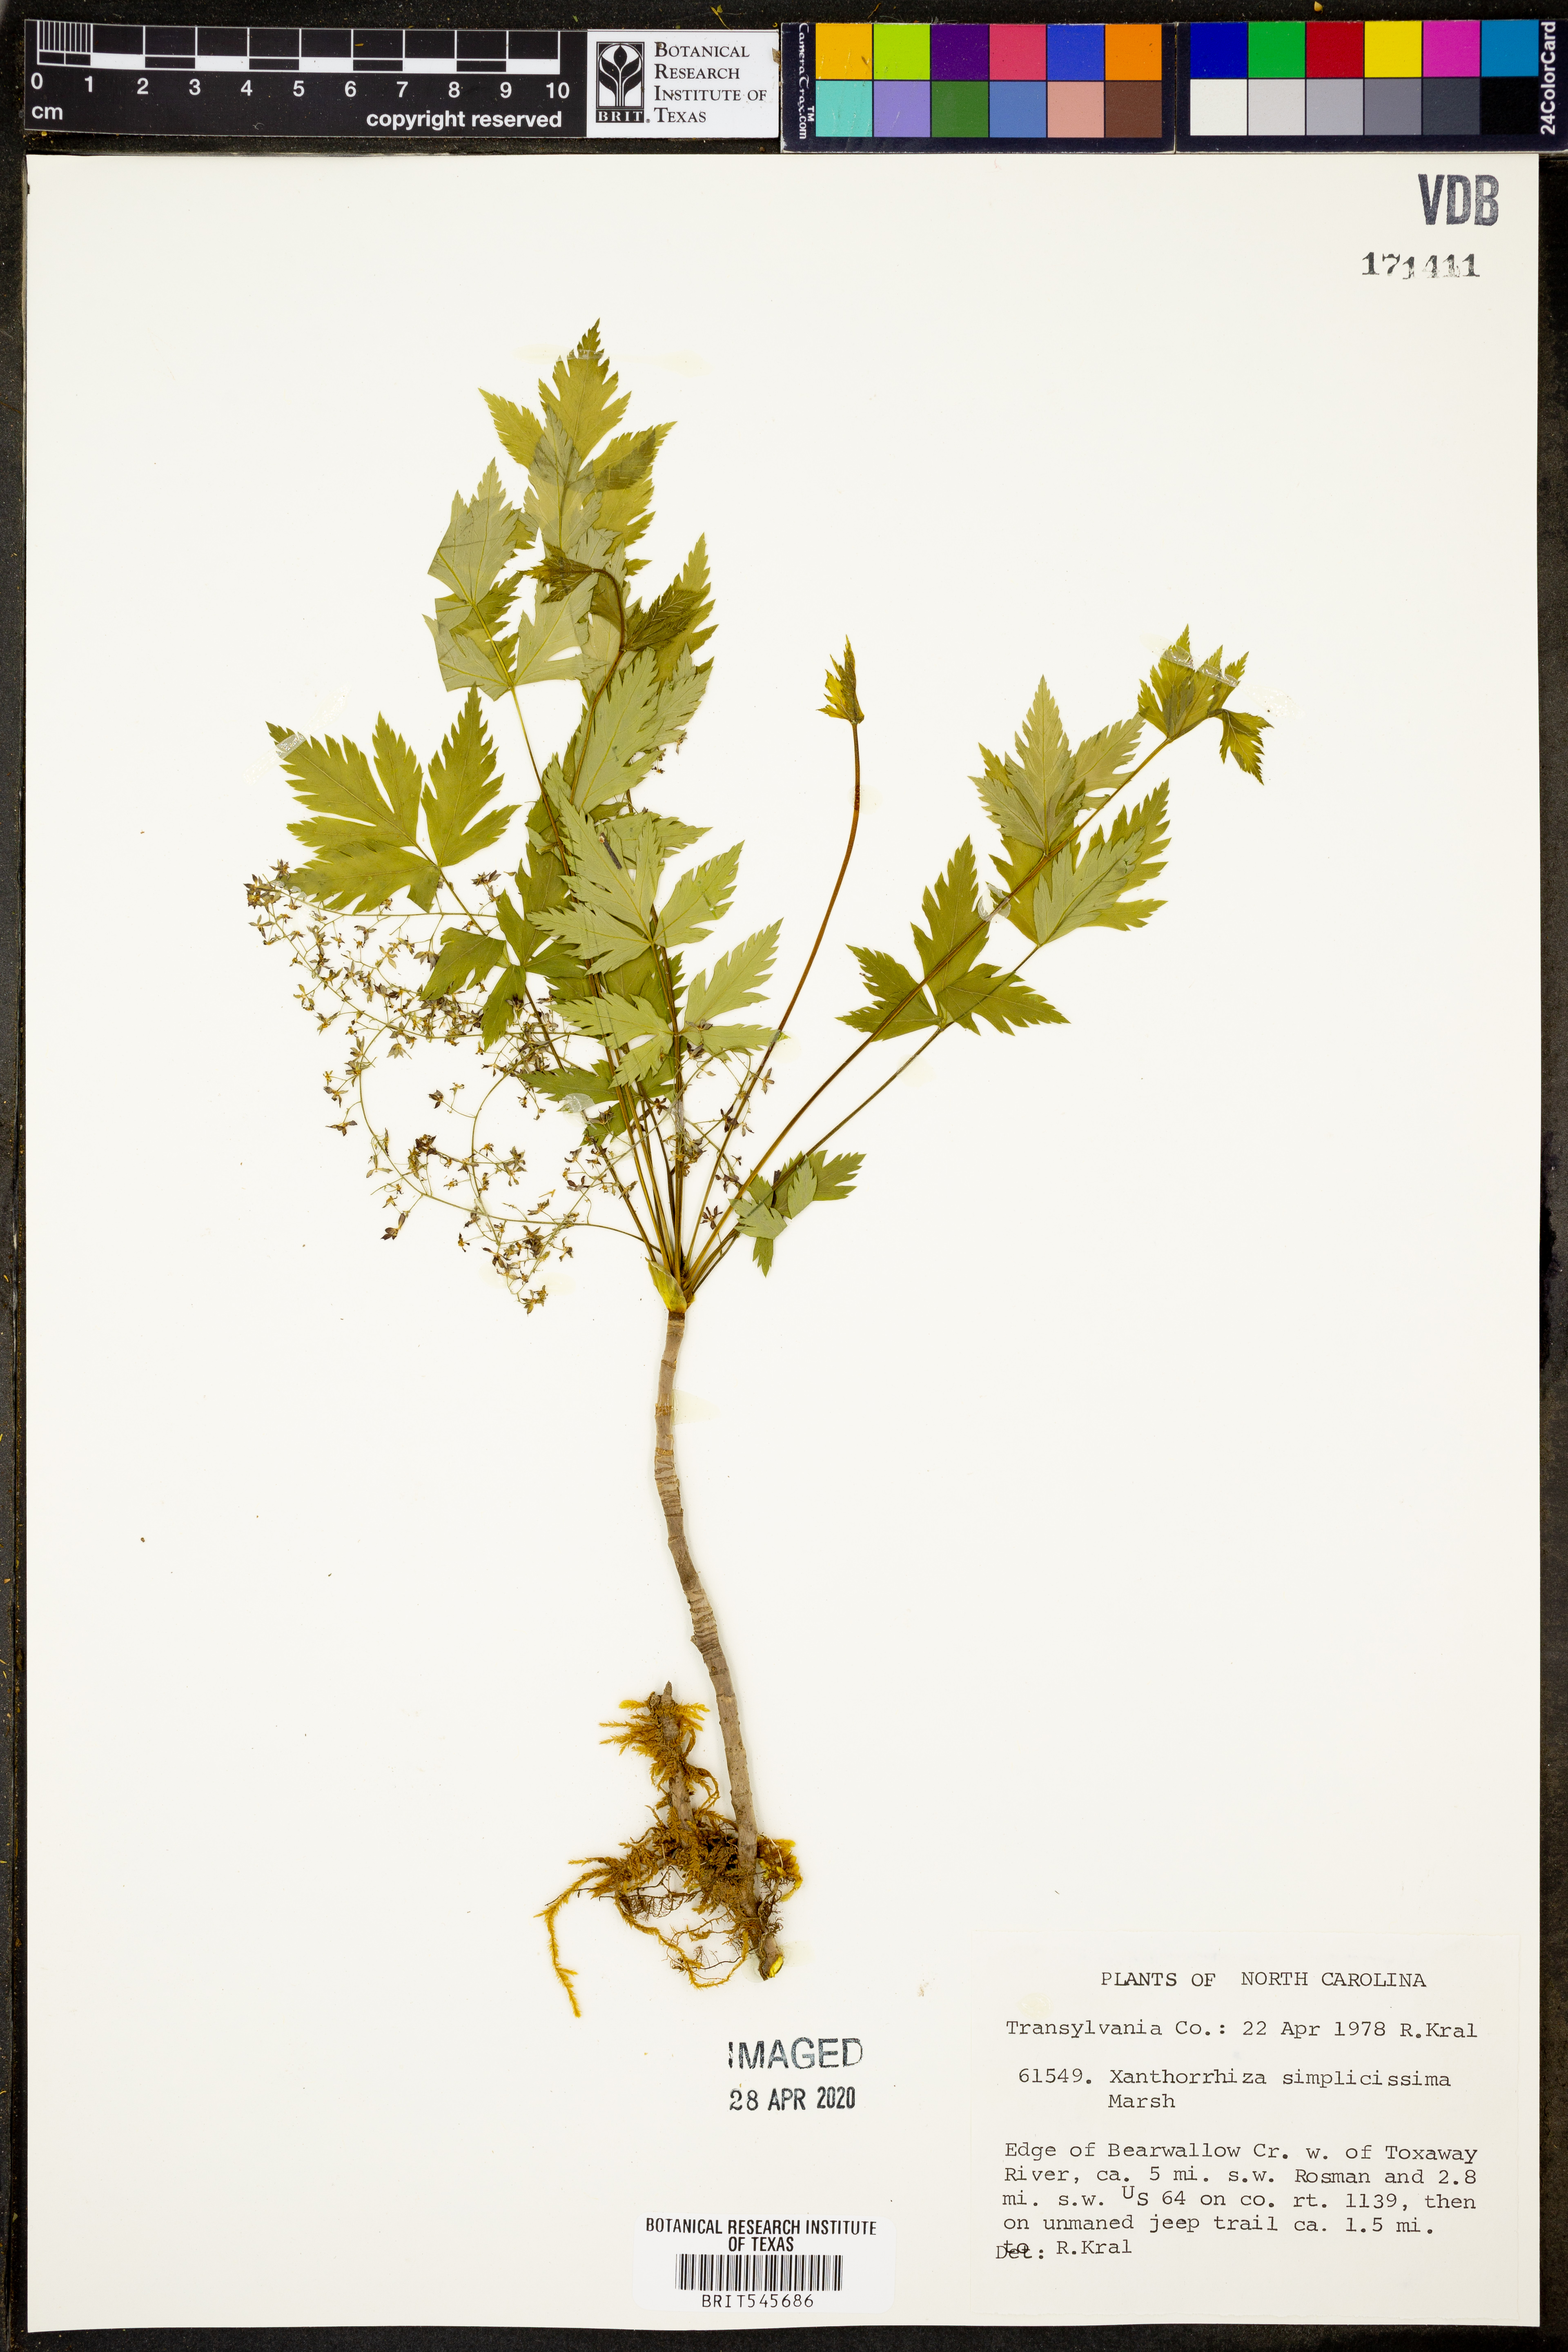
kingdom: Plantae
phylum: Tracheophyta
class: Magnoliopsida
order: Ranunculales
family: Ranunculaceae
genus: Xanthorhiza
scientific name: Xanthorhiza simplicissima
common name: Yellowroot
